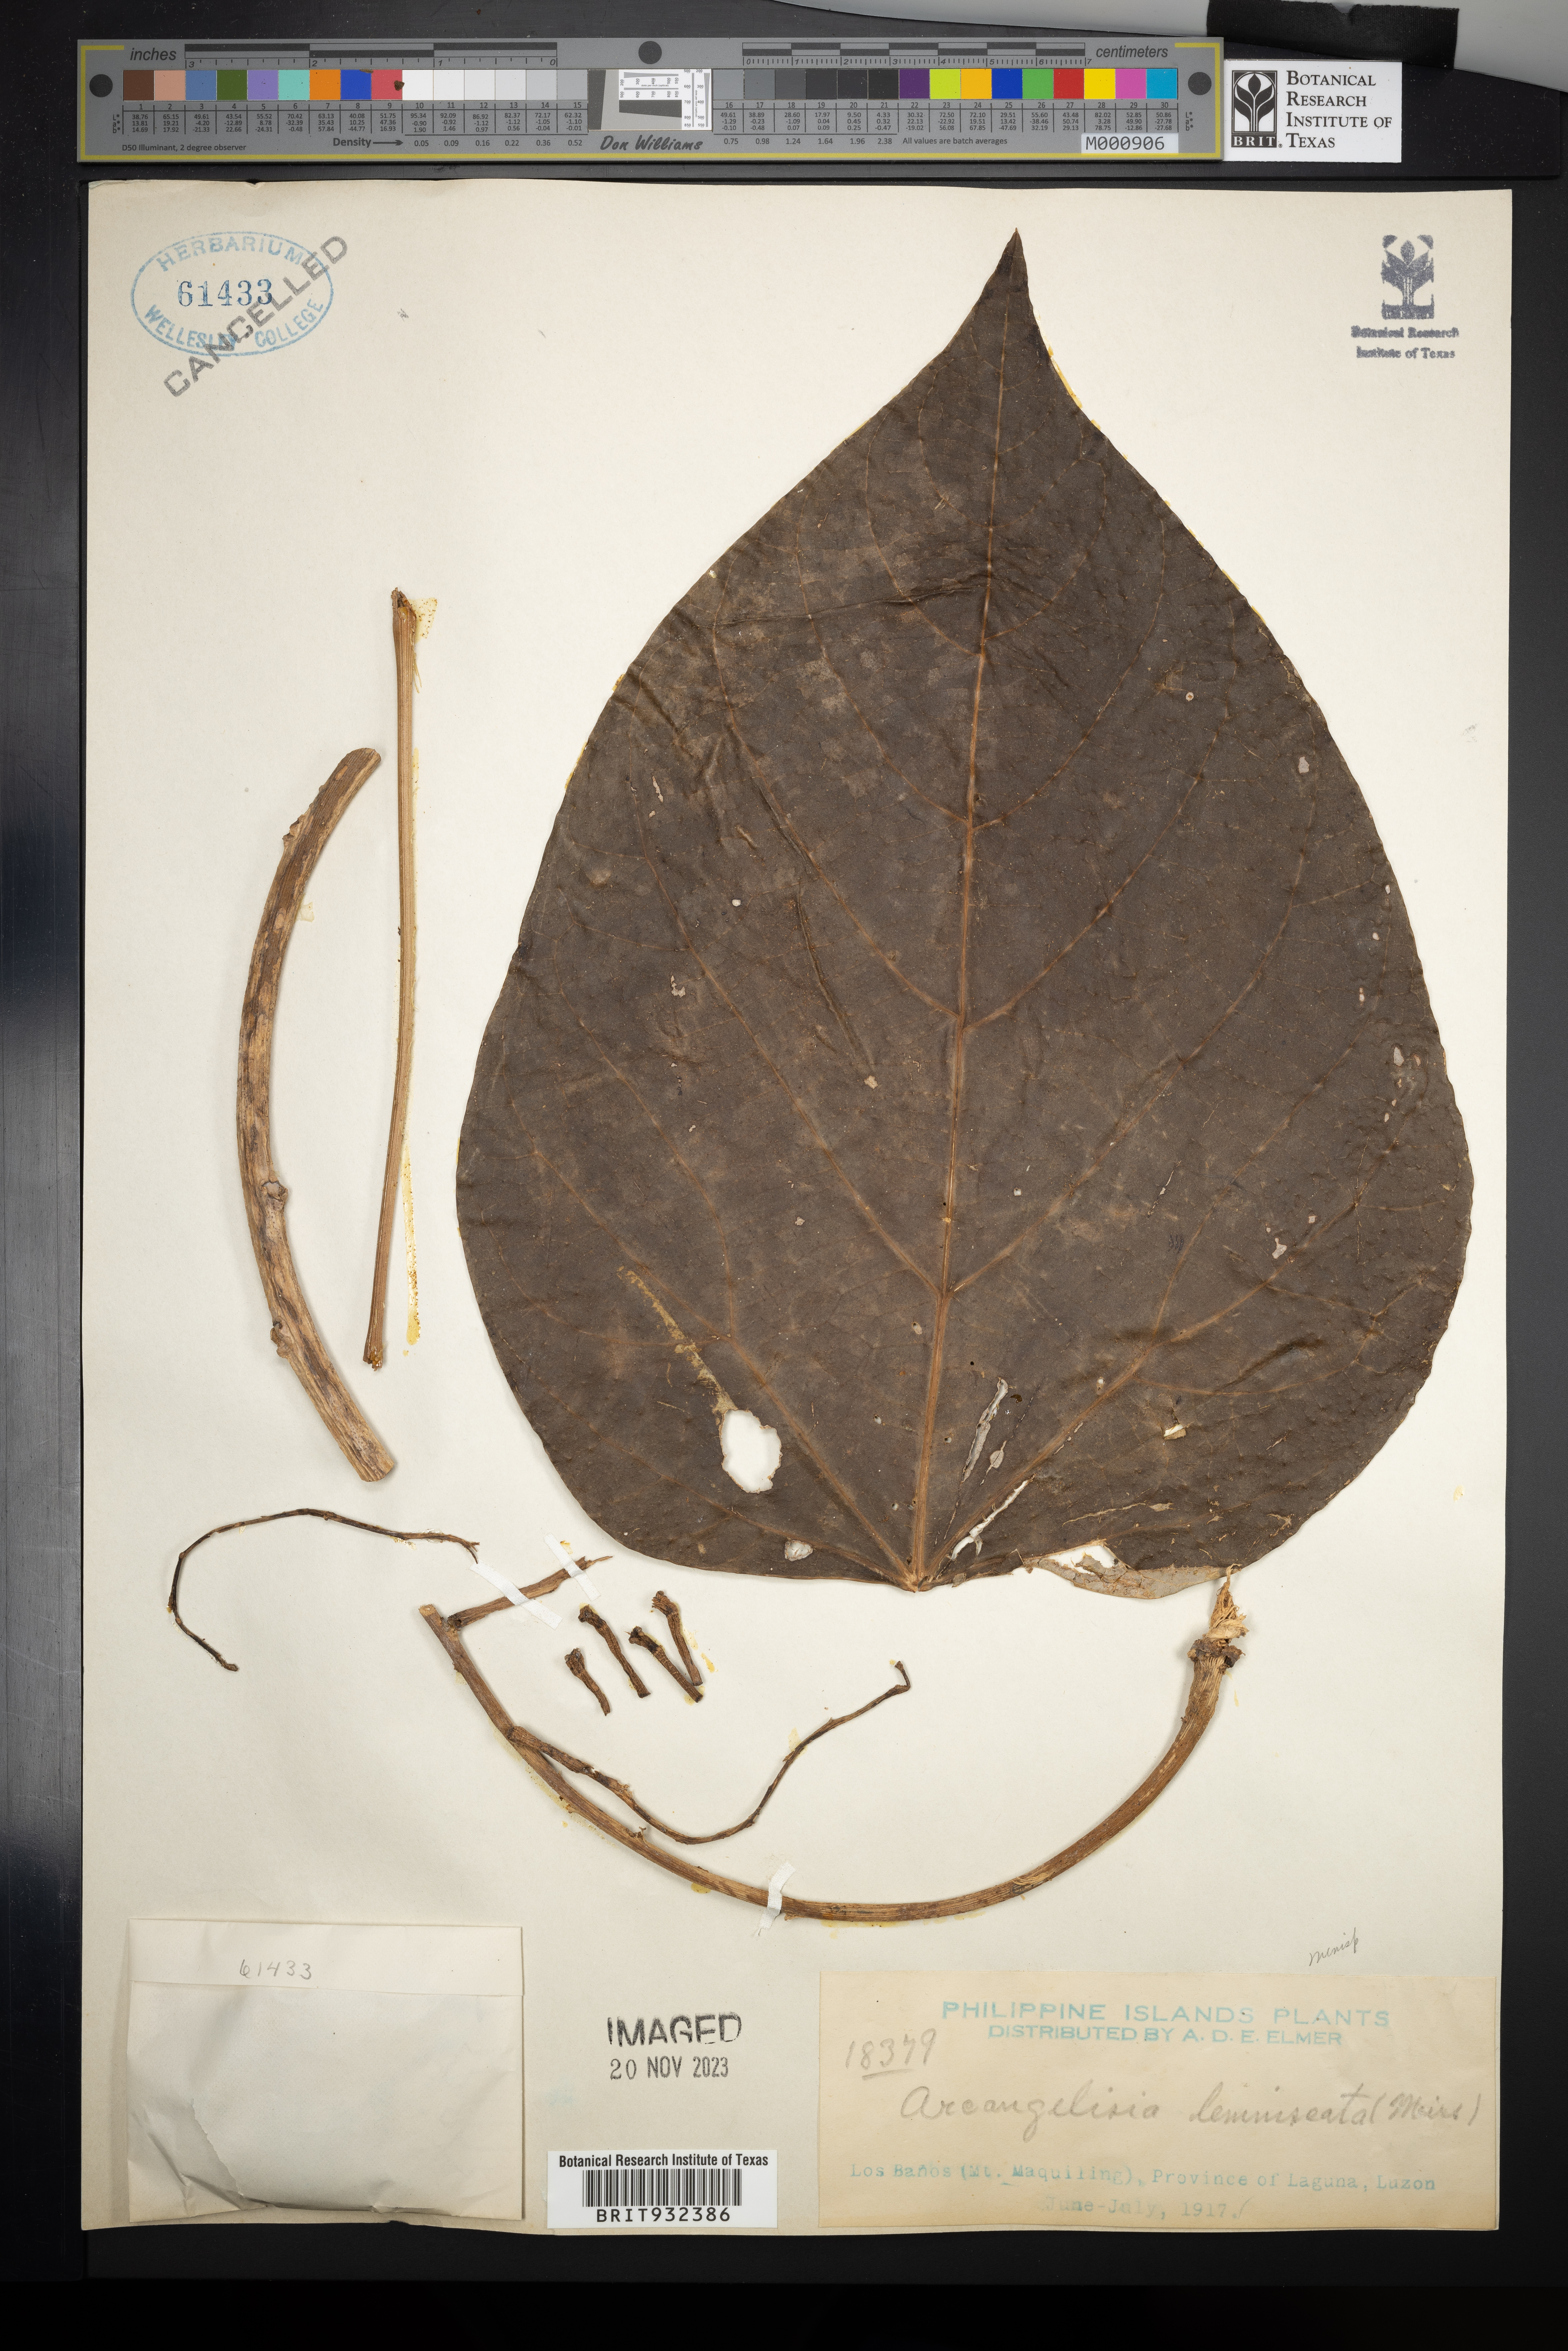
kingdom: Plantae
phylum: Tracheophyta
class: Magnoliopsida
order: Ranunculales
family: Menispermaceae
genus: Arcangelisia
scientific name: Arcangelisia
